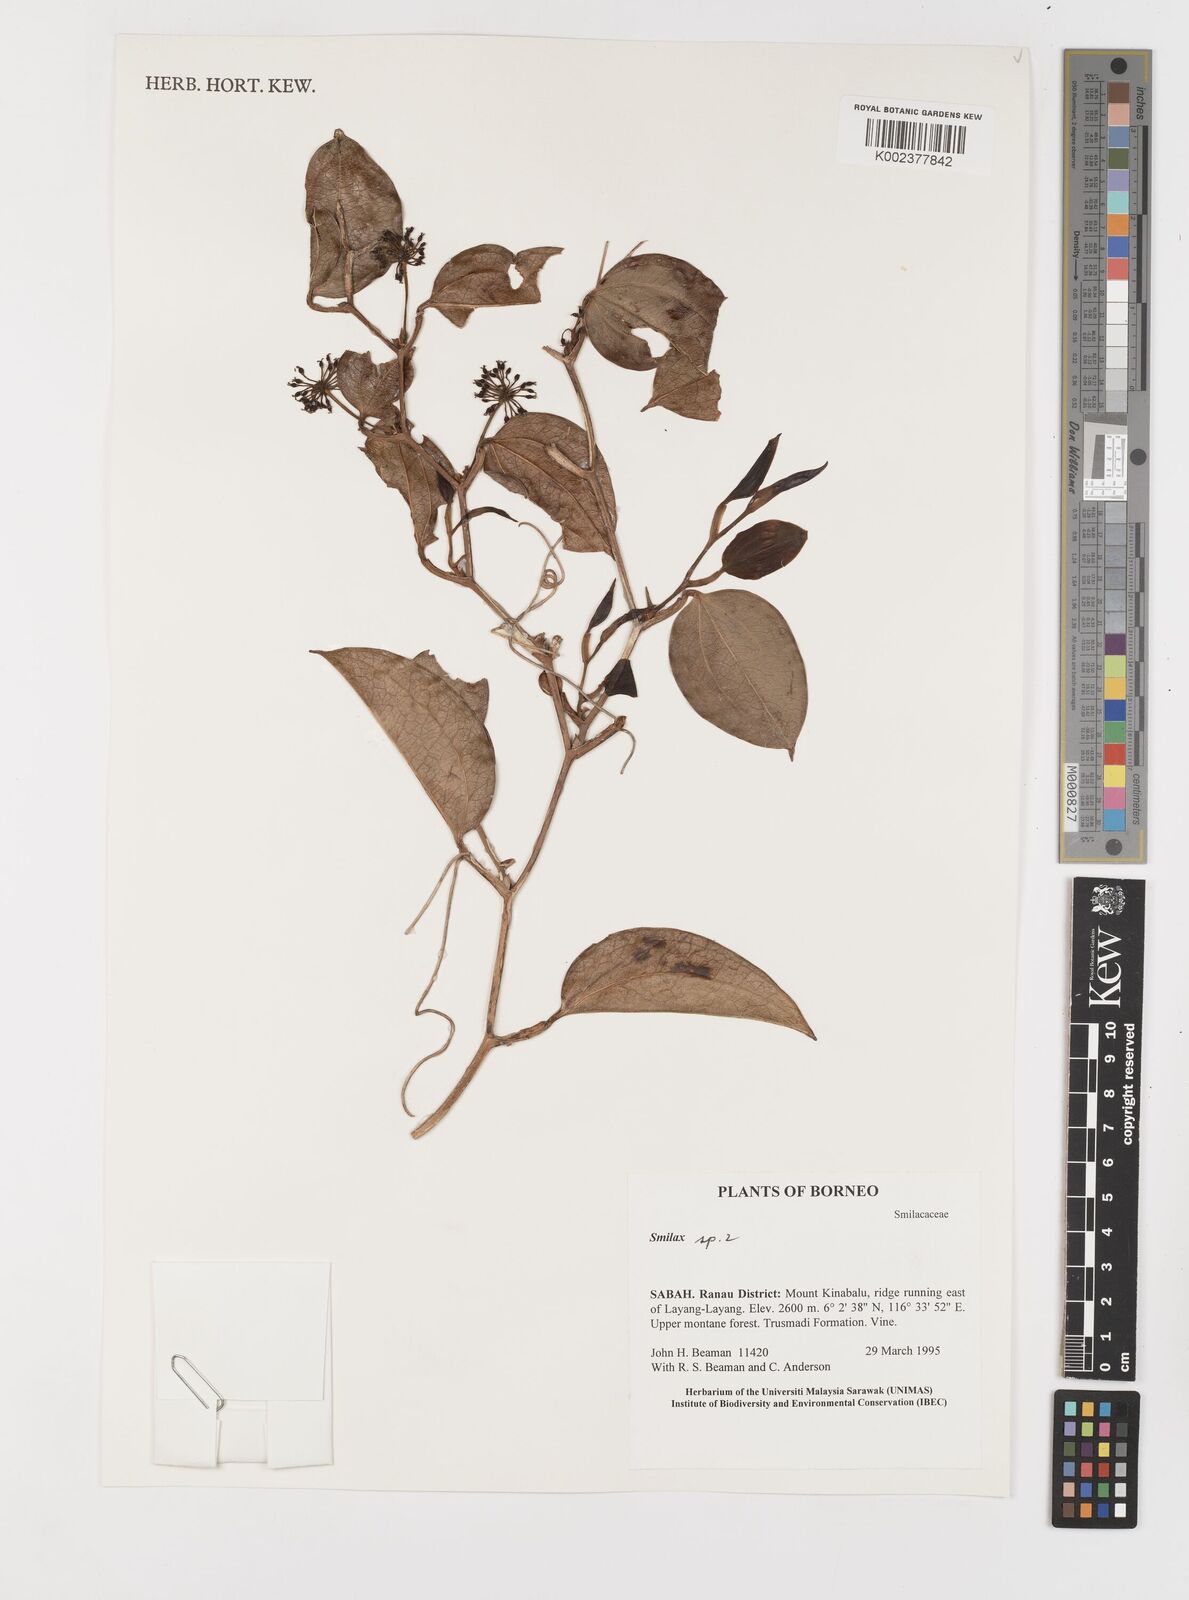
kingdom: Plantae
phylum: Tracheophyta
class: Liliopsida
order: Liliales
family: Smilacaceae
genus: Smilax
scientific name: Smilax
